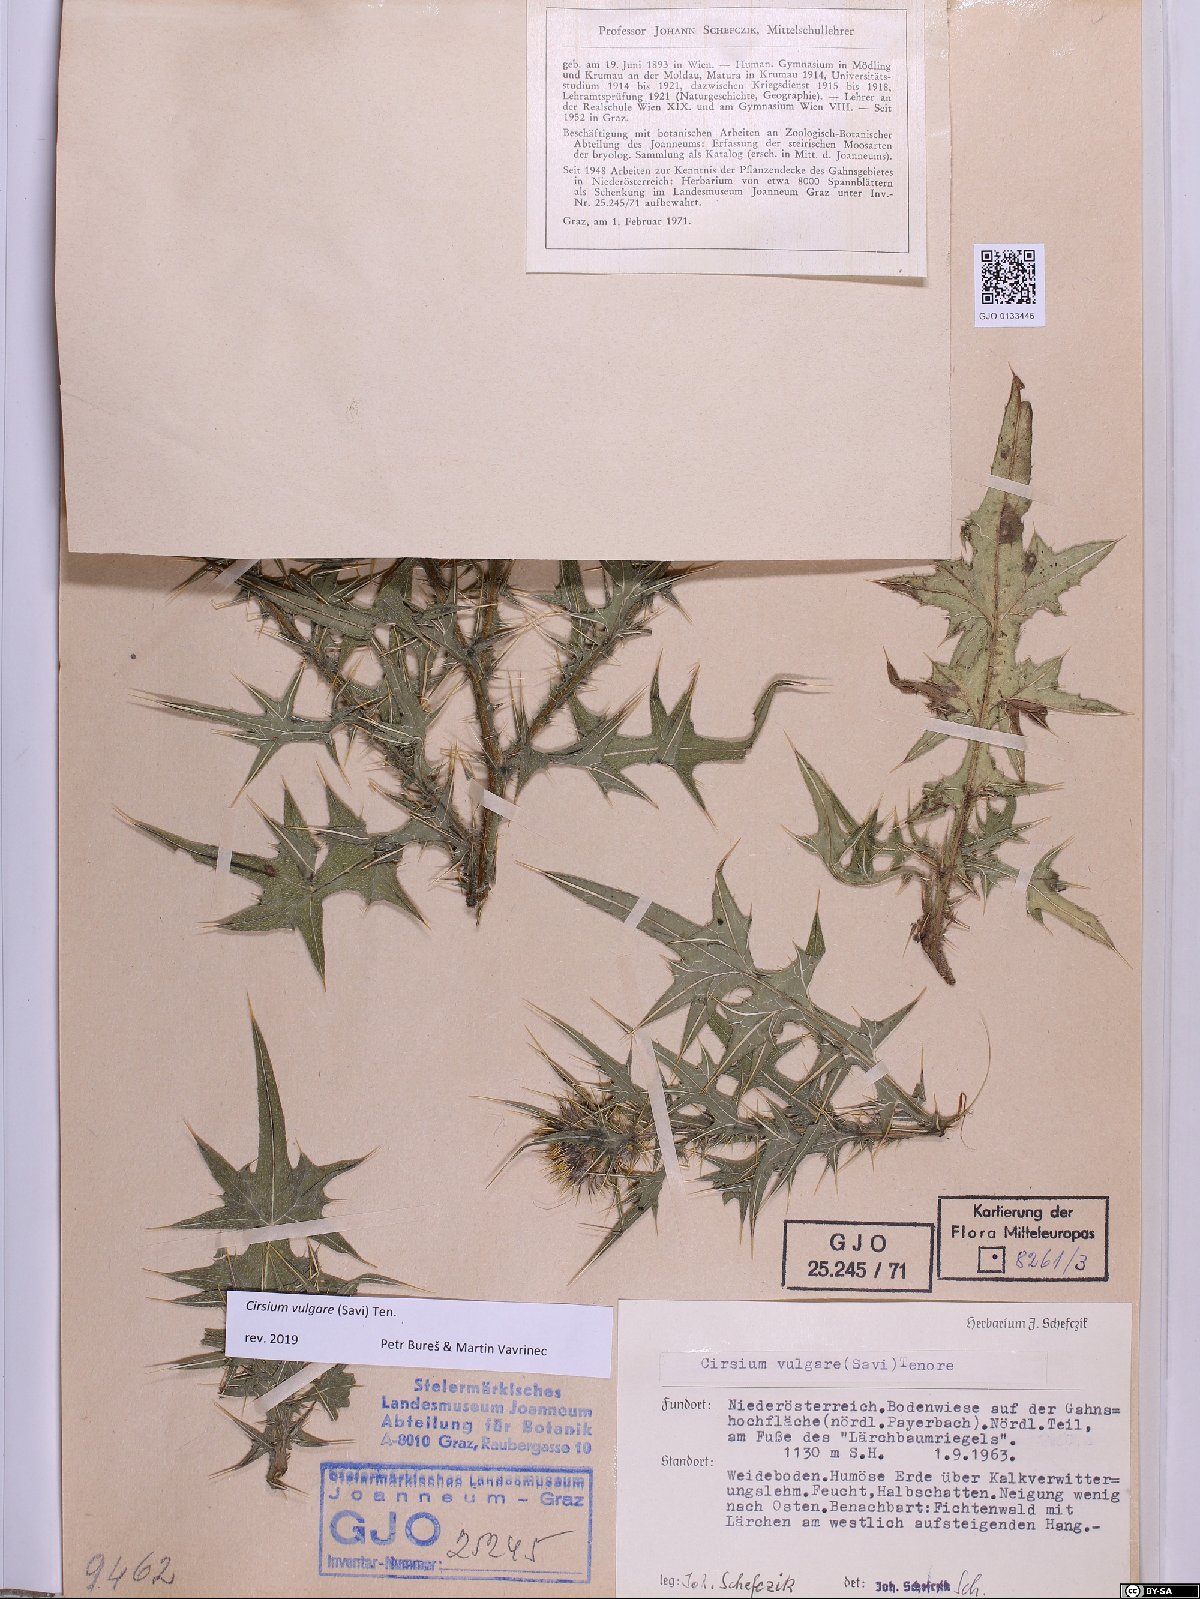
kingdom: Plantae
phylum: Tracheophyta
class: Magnoliopsida
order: Asterales
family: Asteraceae
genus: Cirsium
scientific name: Cirsium vulgare
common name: Bull thistle
